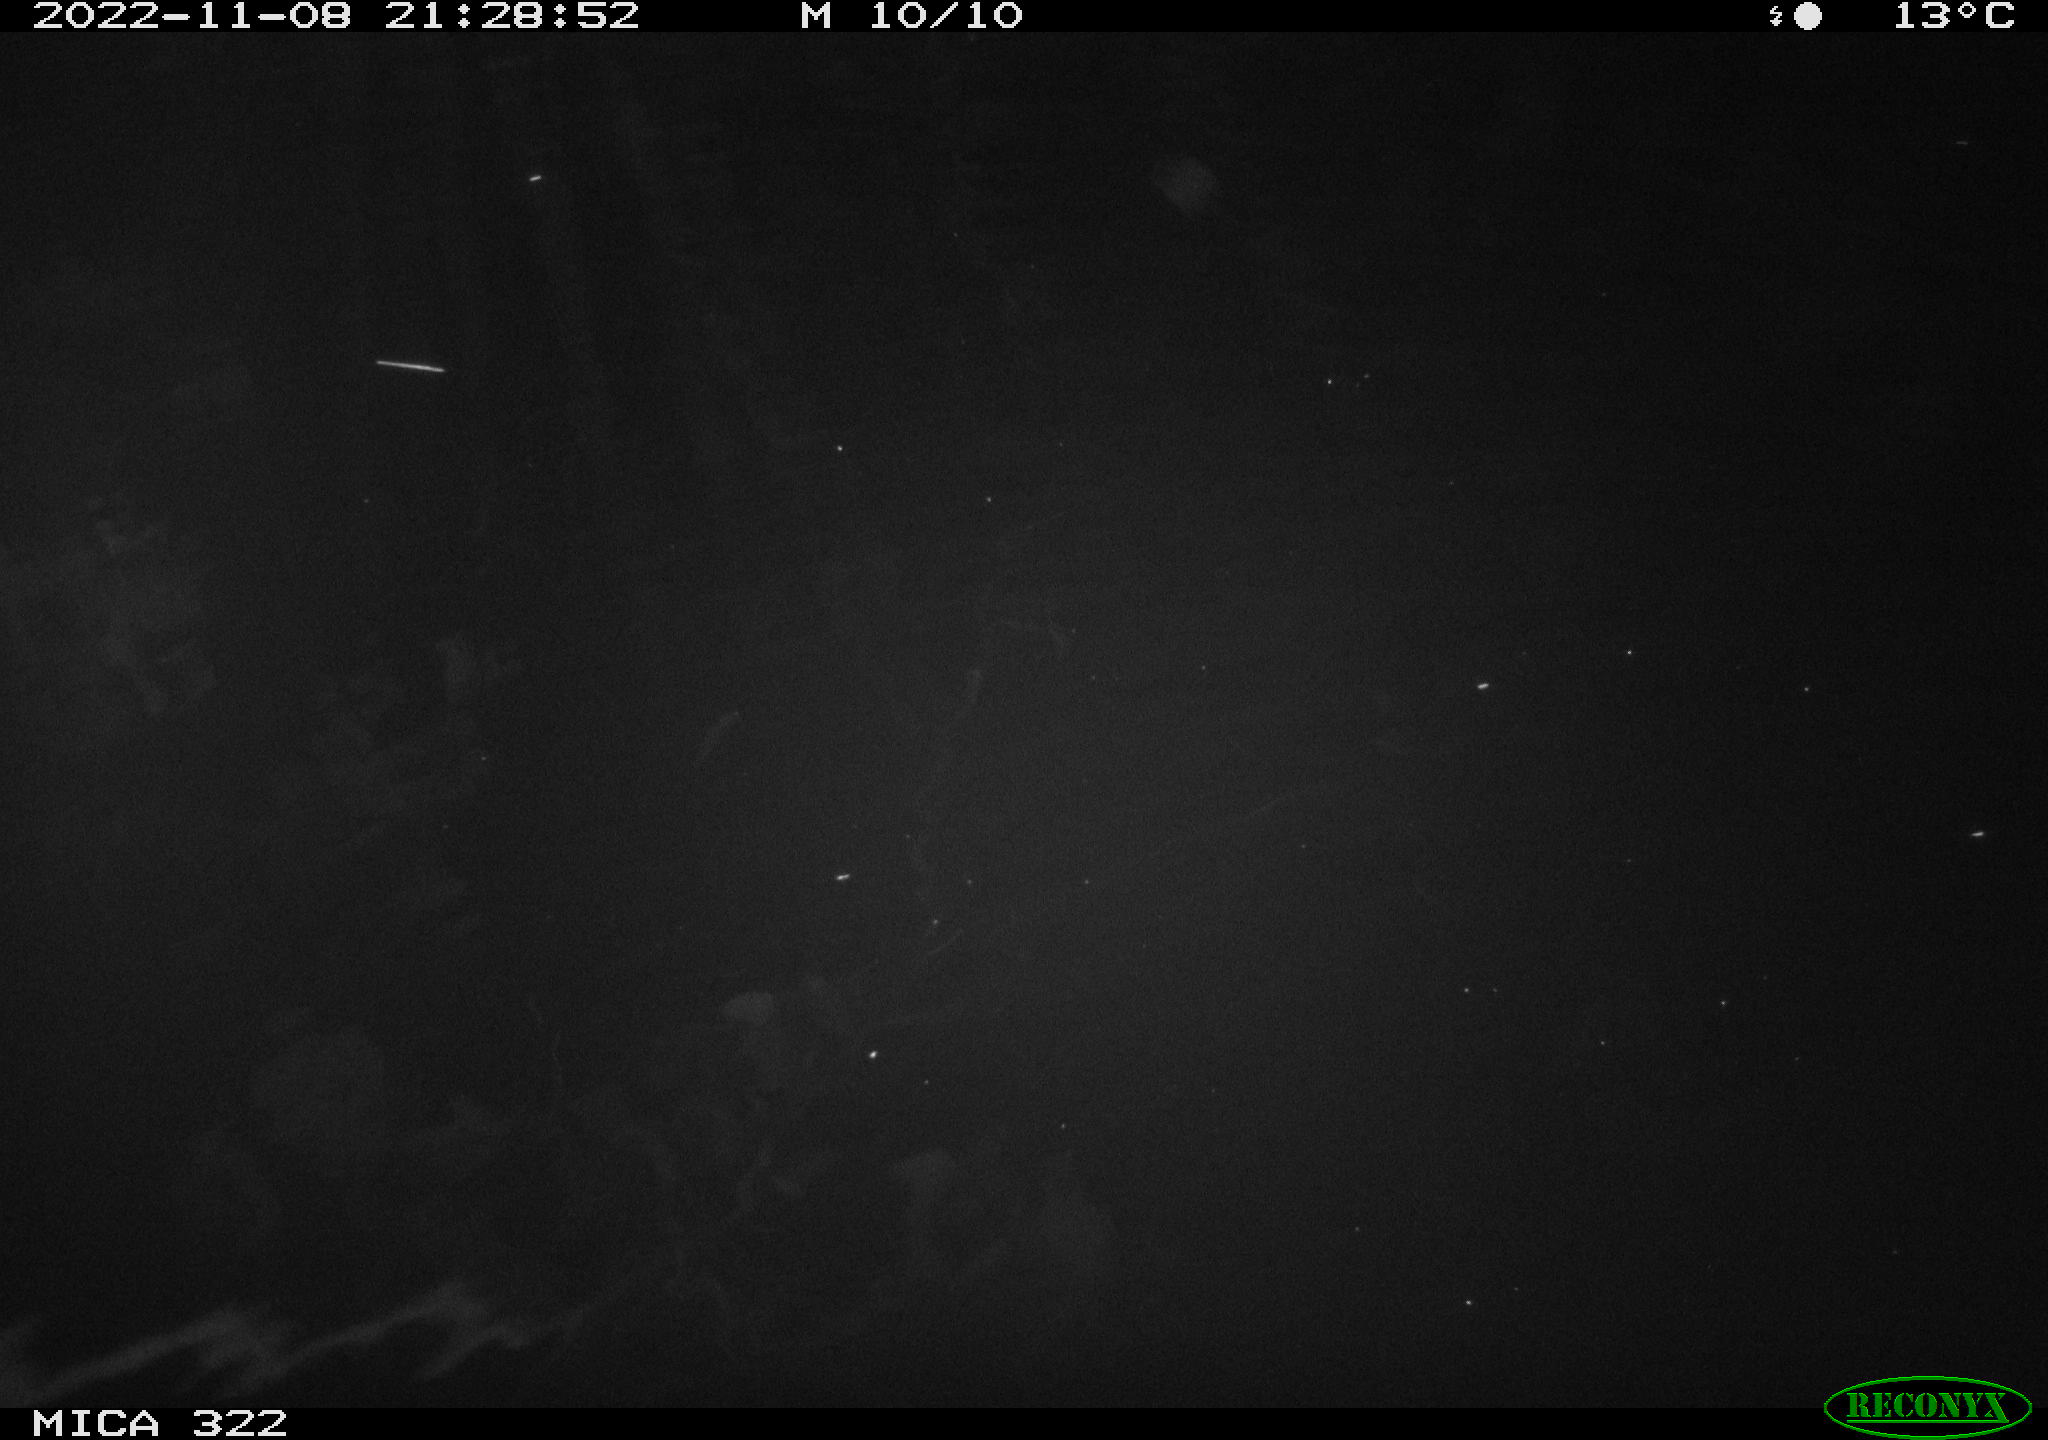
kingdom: Animalia
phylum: Chordata
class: Mammalia
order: Rodentia
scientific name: Rodentia
